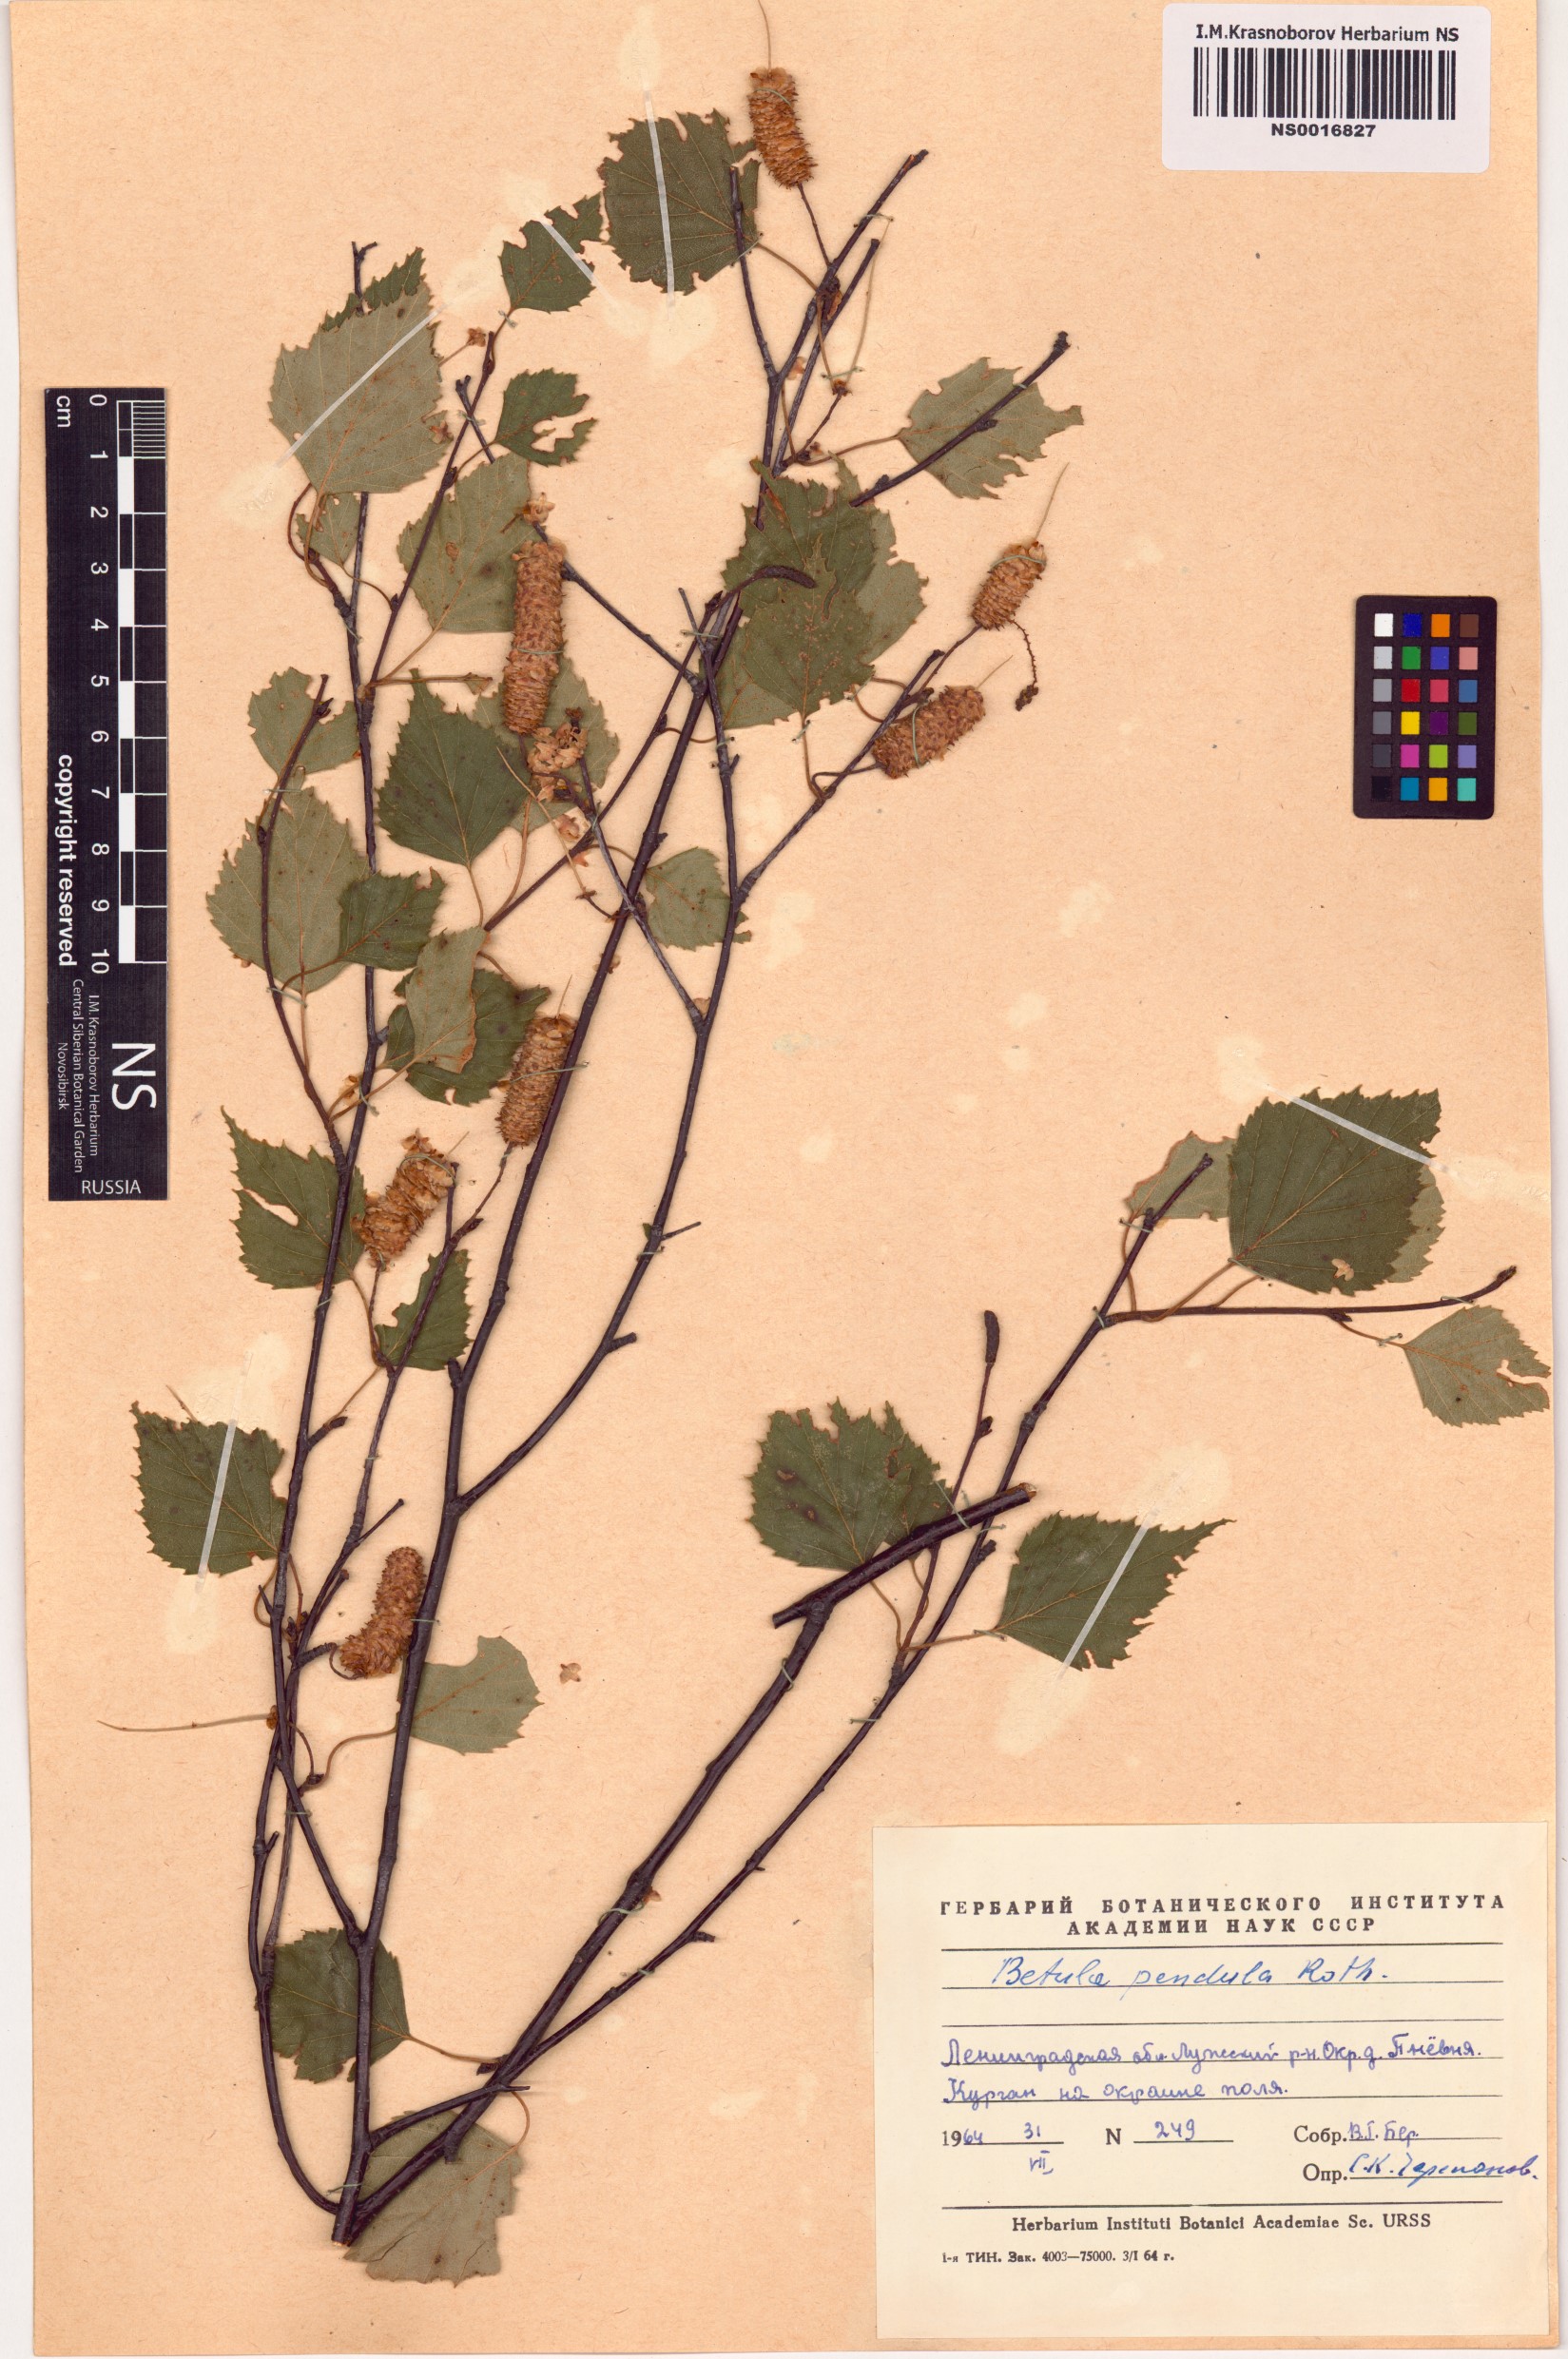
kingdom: Plantae
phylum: Tracheophyta
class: Magnoliopsida
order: Fagales
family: Betulaceae
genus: Betula
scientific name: Betula pendula
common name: Silver birch
